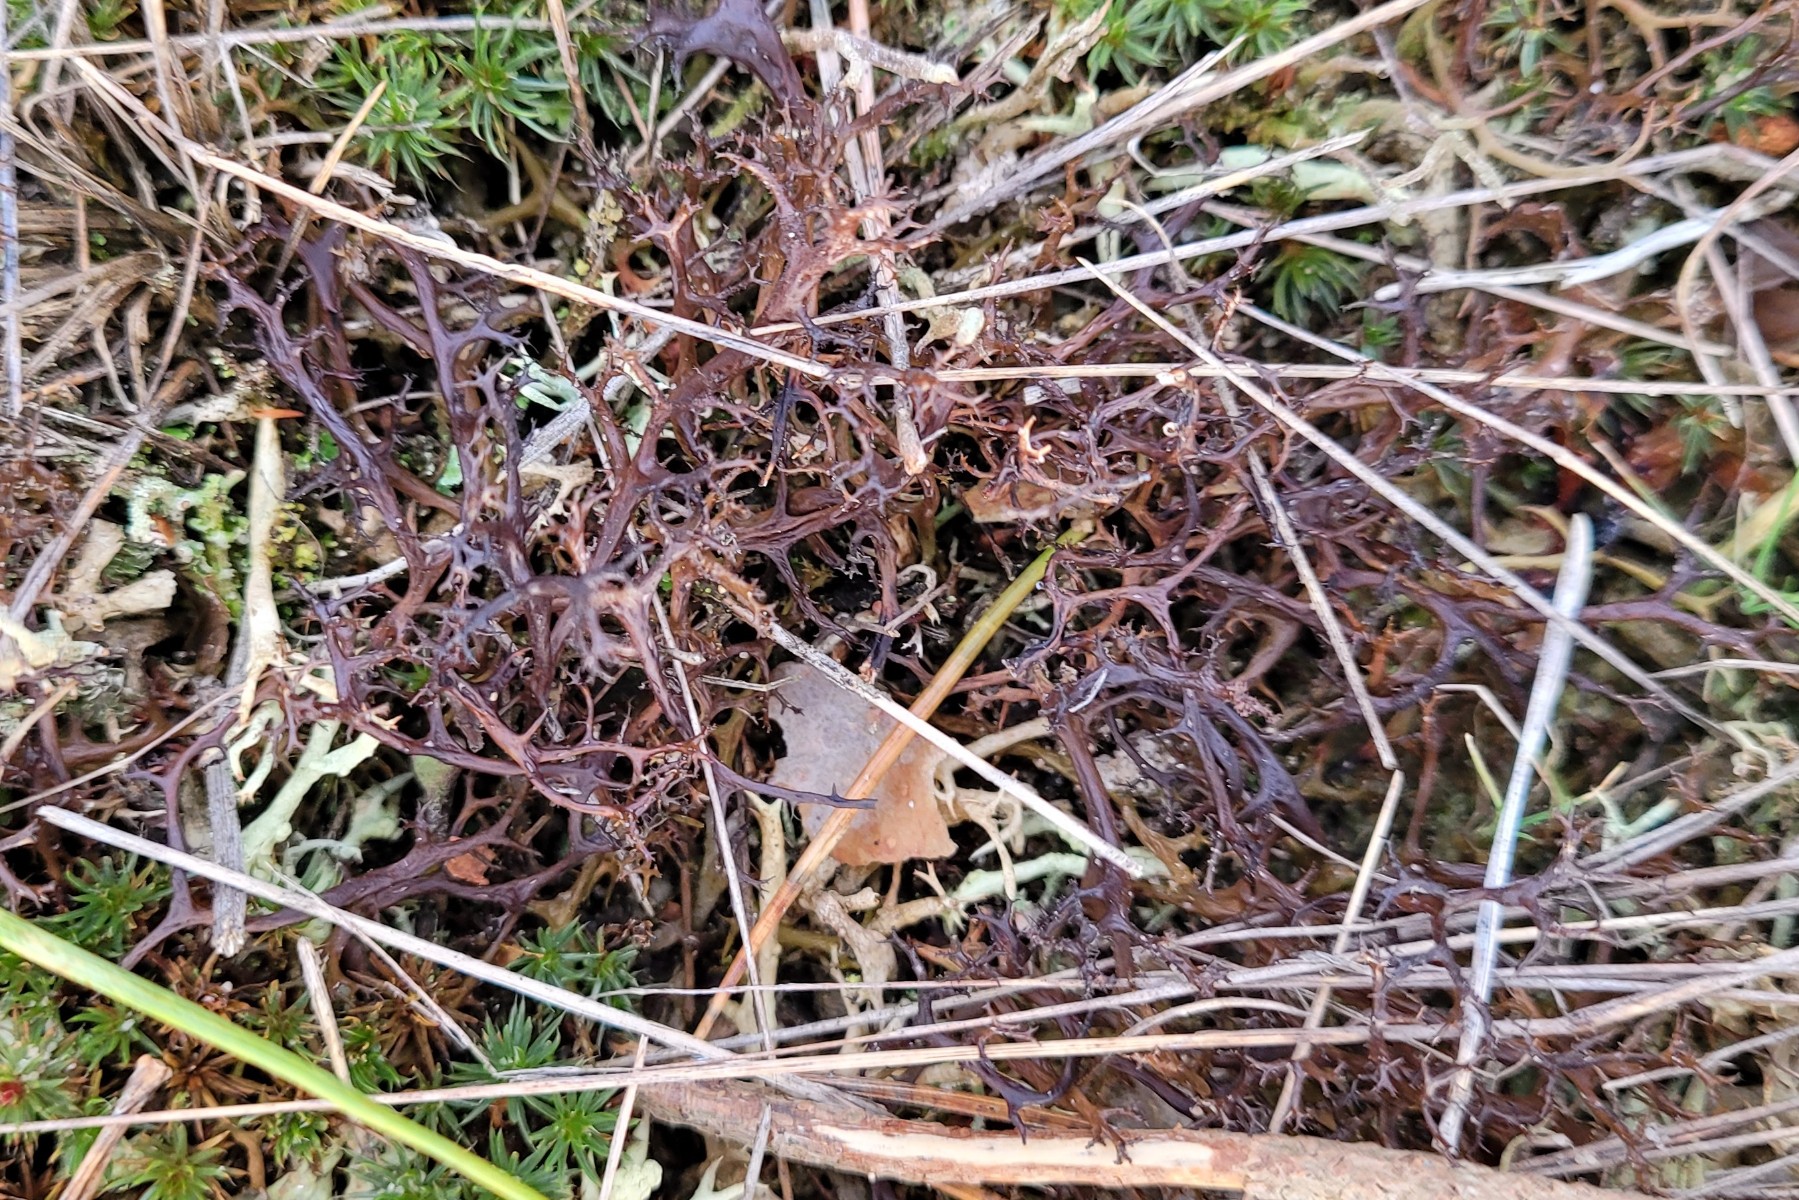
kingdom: Fungi
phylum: Ascomycota
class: Lecanoromycetes
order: Lecanorales
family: Parmeliaceae
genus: Cetraria
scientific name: Cetraria aculeata
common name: grubet tjørnelav
